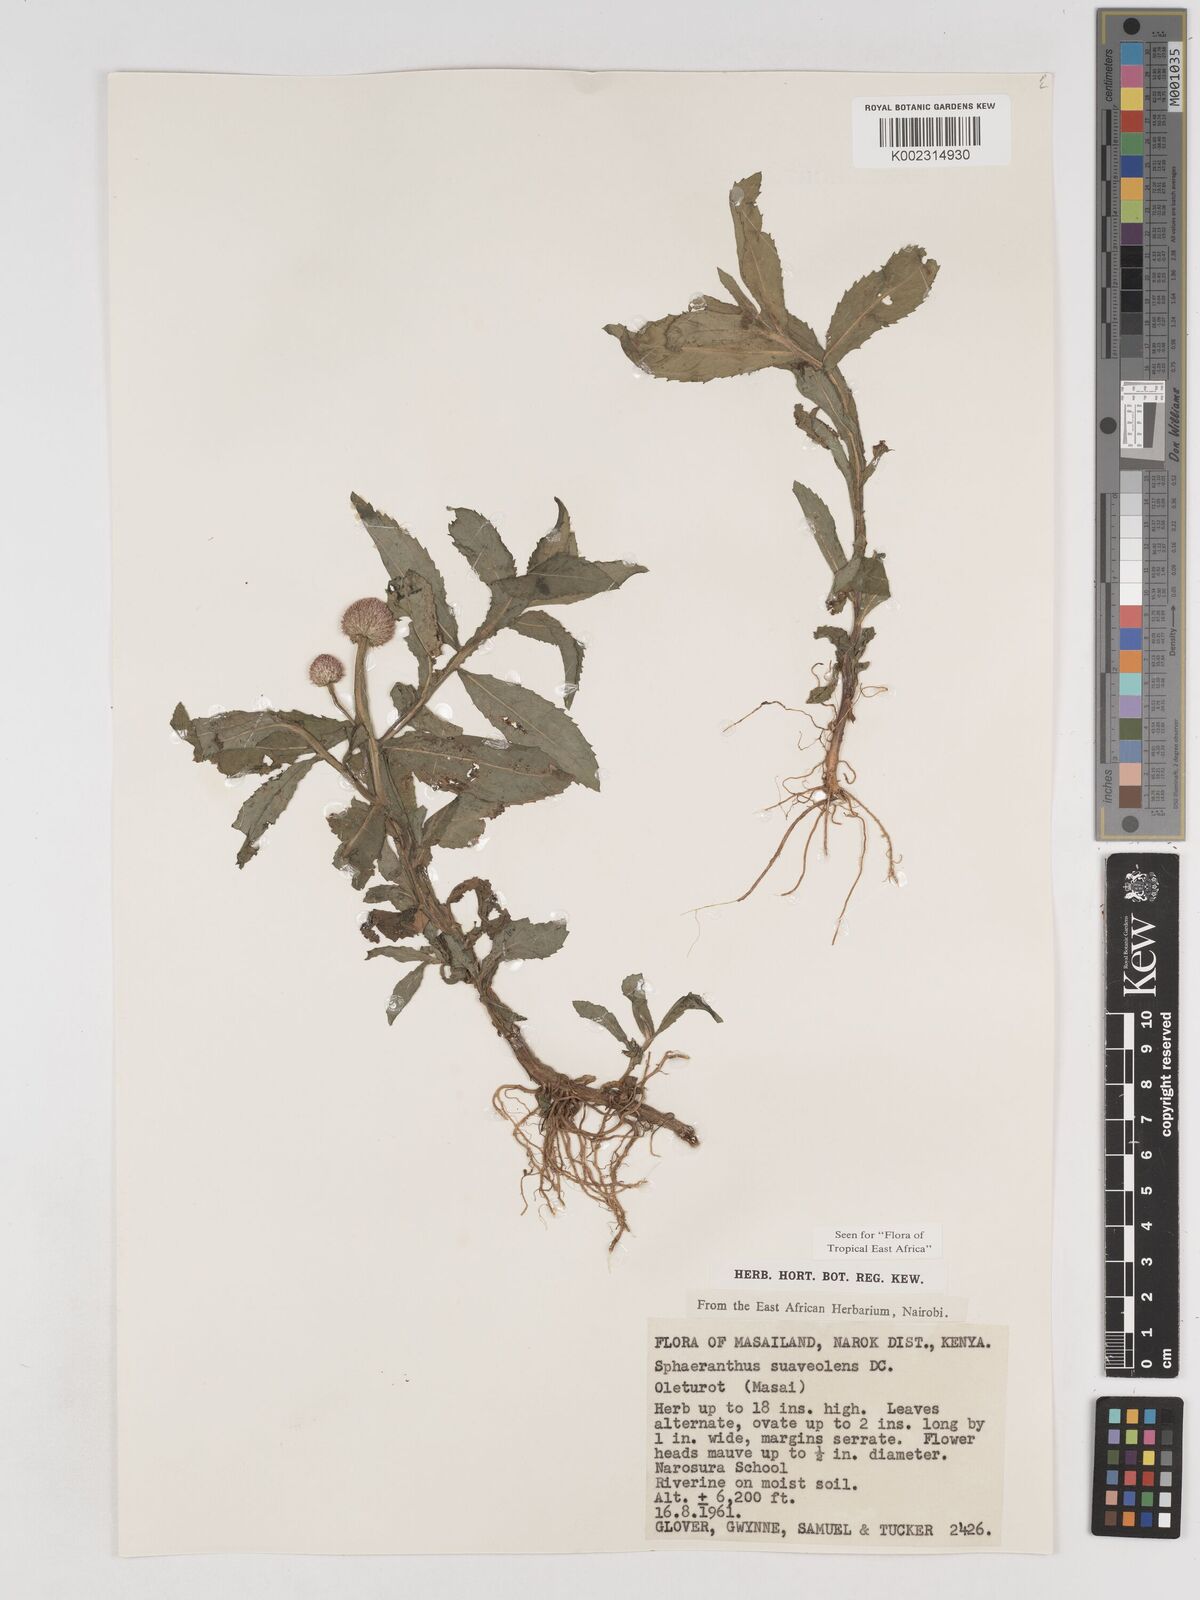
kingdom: Plantae
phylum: Tracheophyta
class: Magnoliopsida
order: Asterales
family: Asteraceae
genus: Sphaeranthus
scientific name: Sphaeranthus suaveolens
